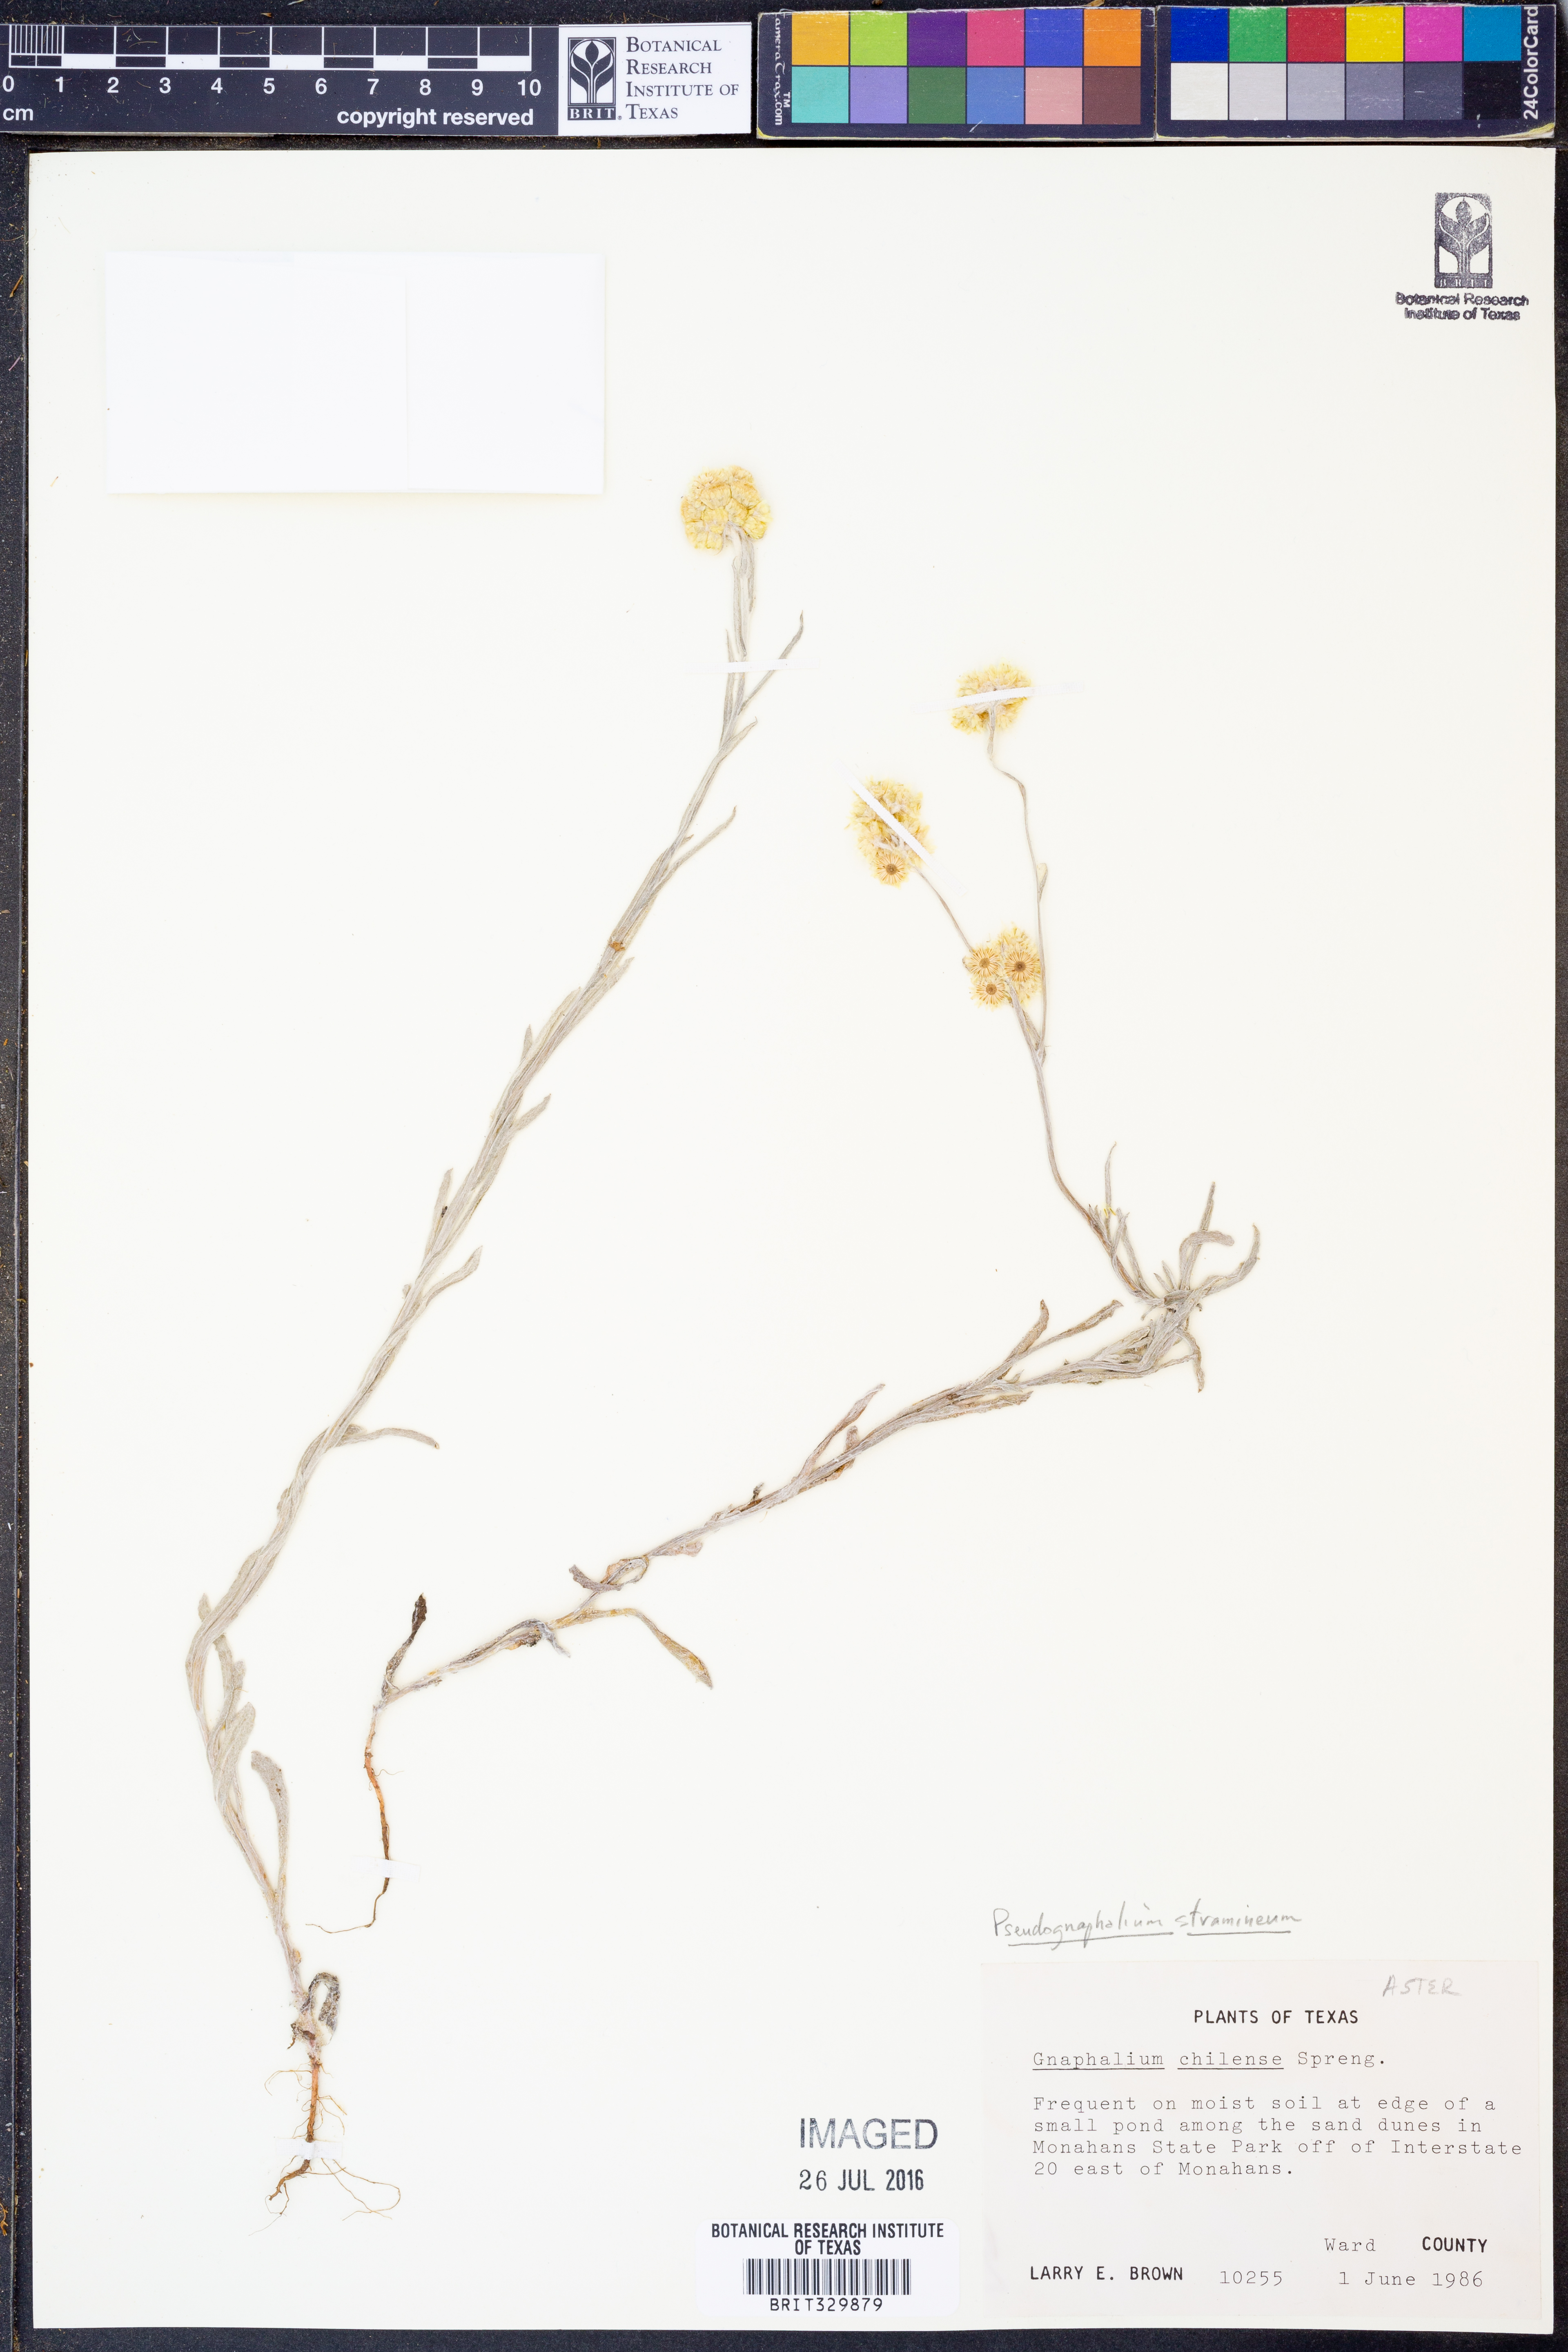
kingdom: Plantae
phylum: Tracheophyta
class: Magnoliopsida
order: Asterales
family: Asteraceae
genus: Pseudognaphalium
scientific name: Pseudognaphalium stramineum
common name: Cotton-batting-plant
